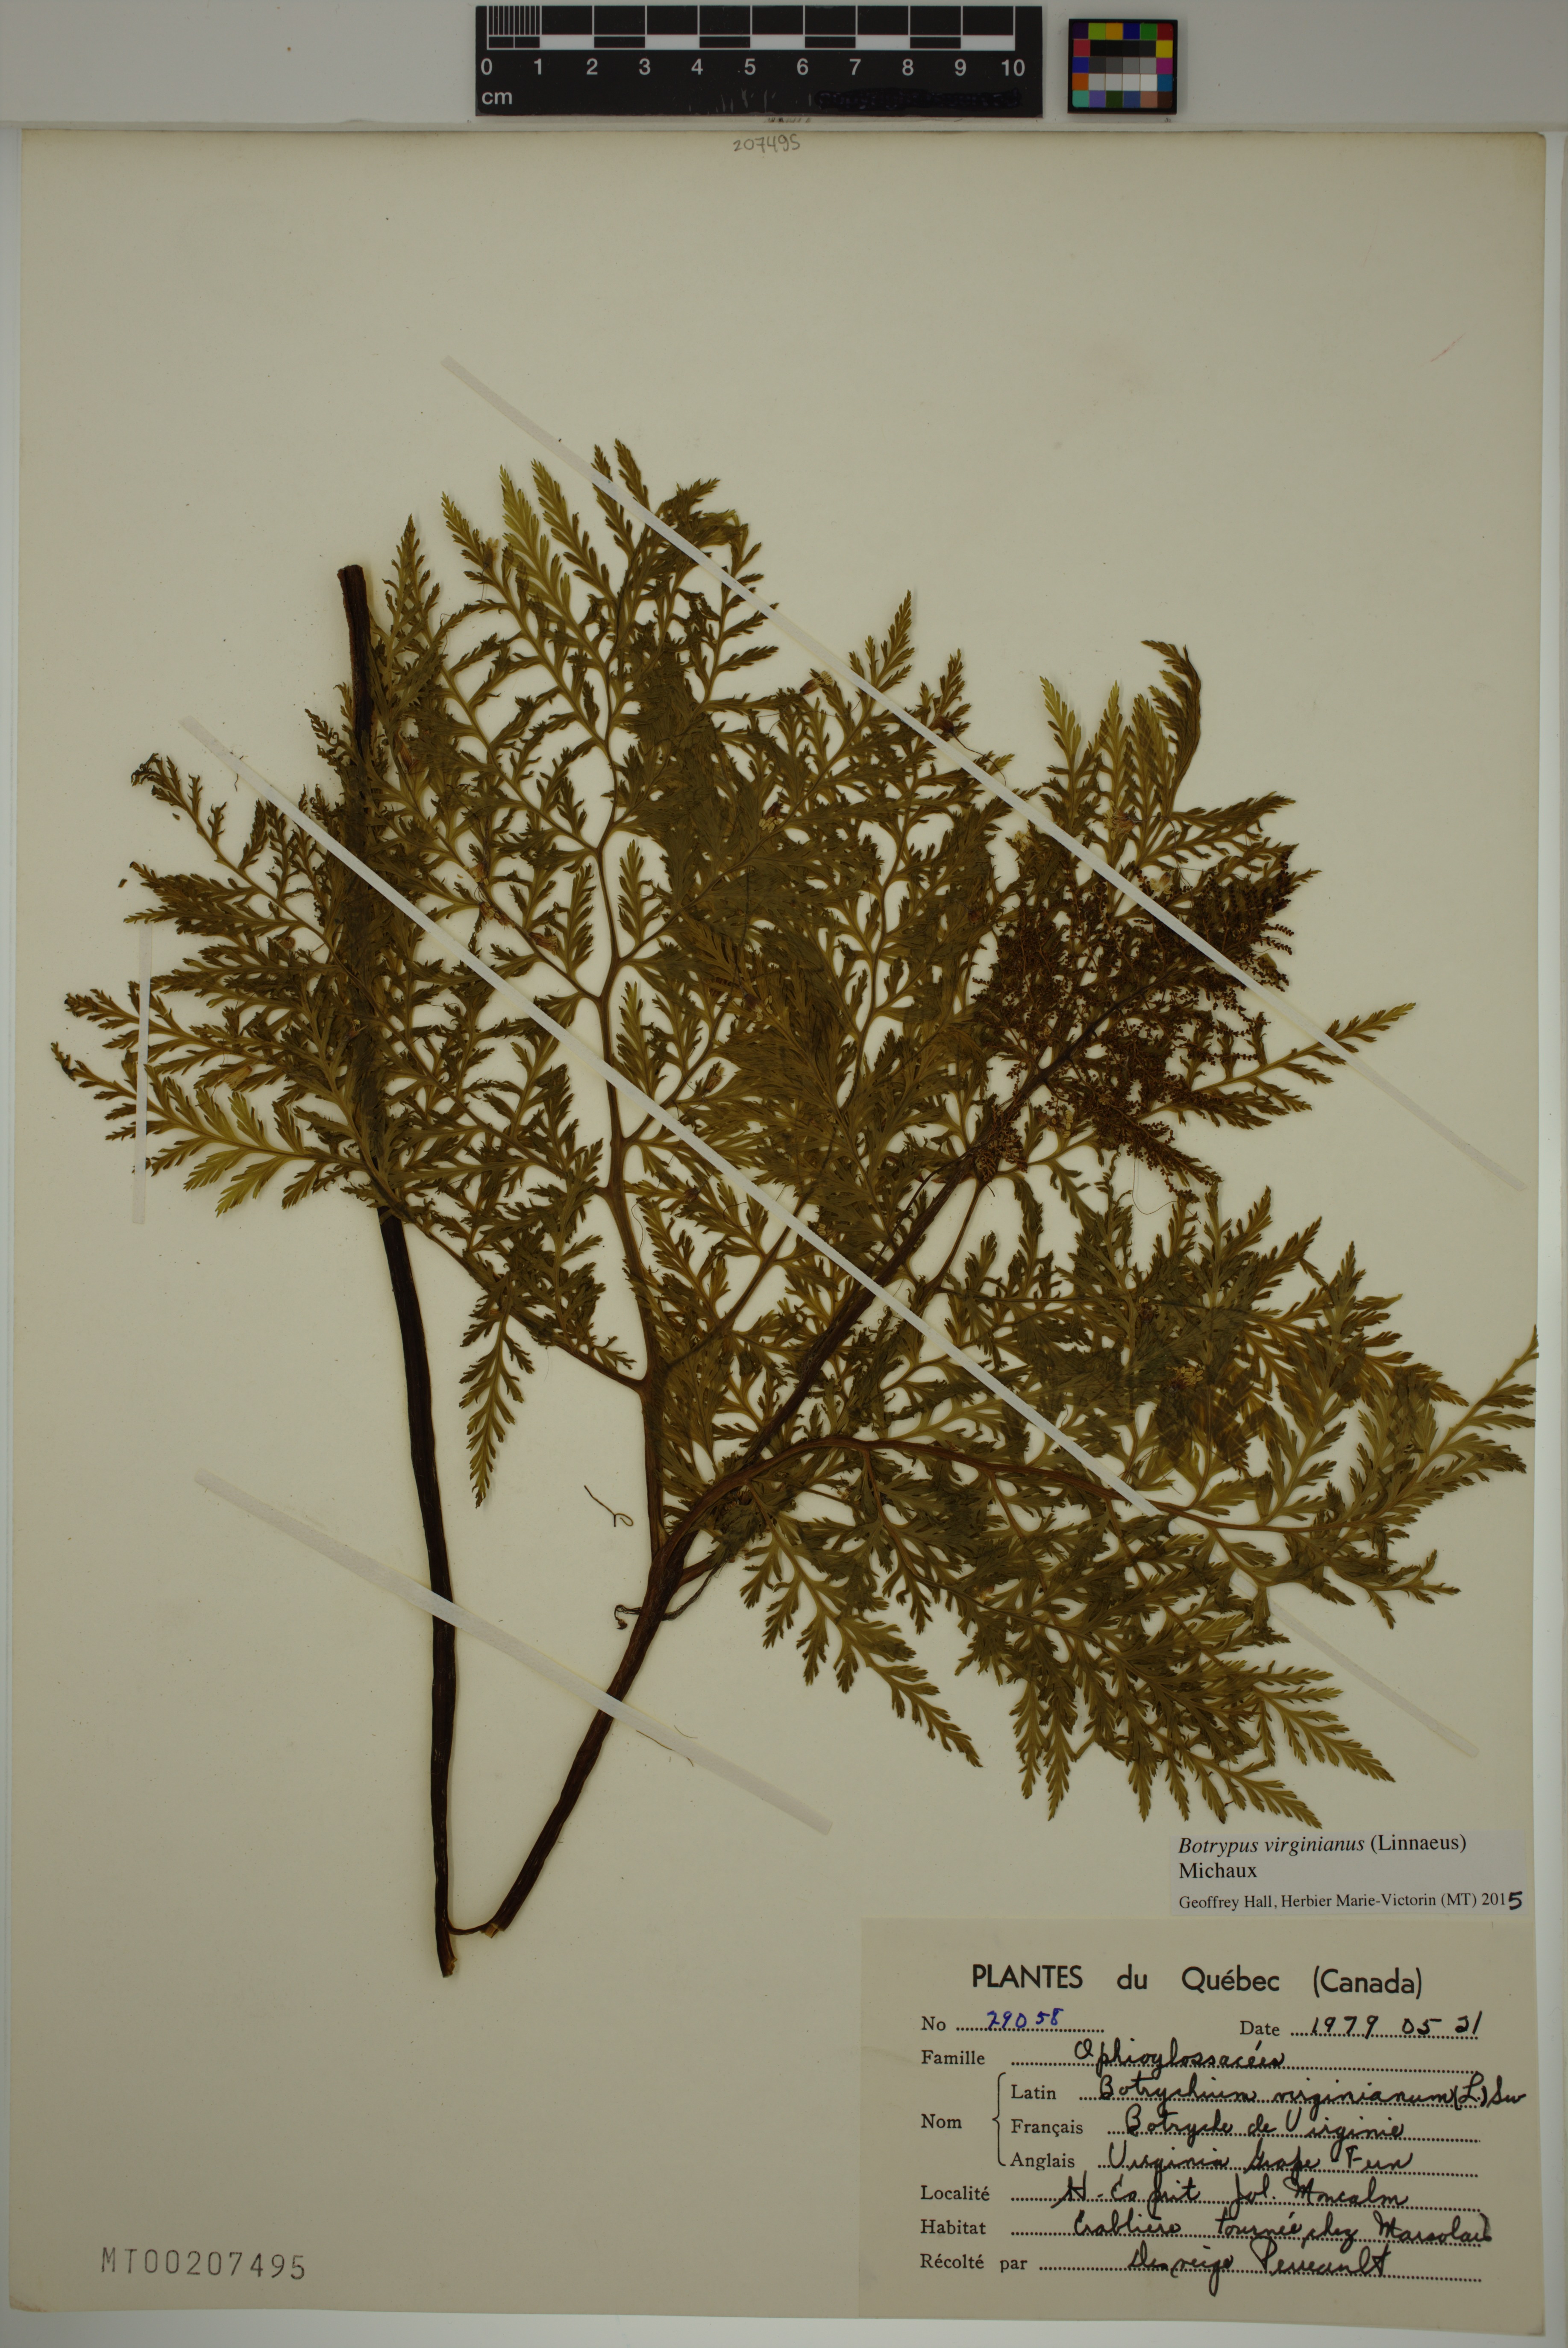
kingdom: Plantae
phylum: Tracheophyta
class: Polypodiopsida
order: Ophioglossales
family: Ophioglossaceae
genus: Botrypus
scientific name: Botrypus virginianus
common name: Common grapefern
